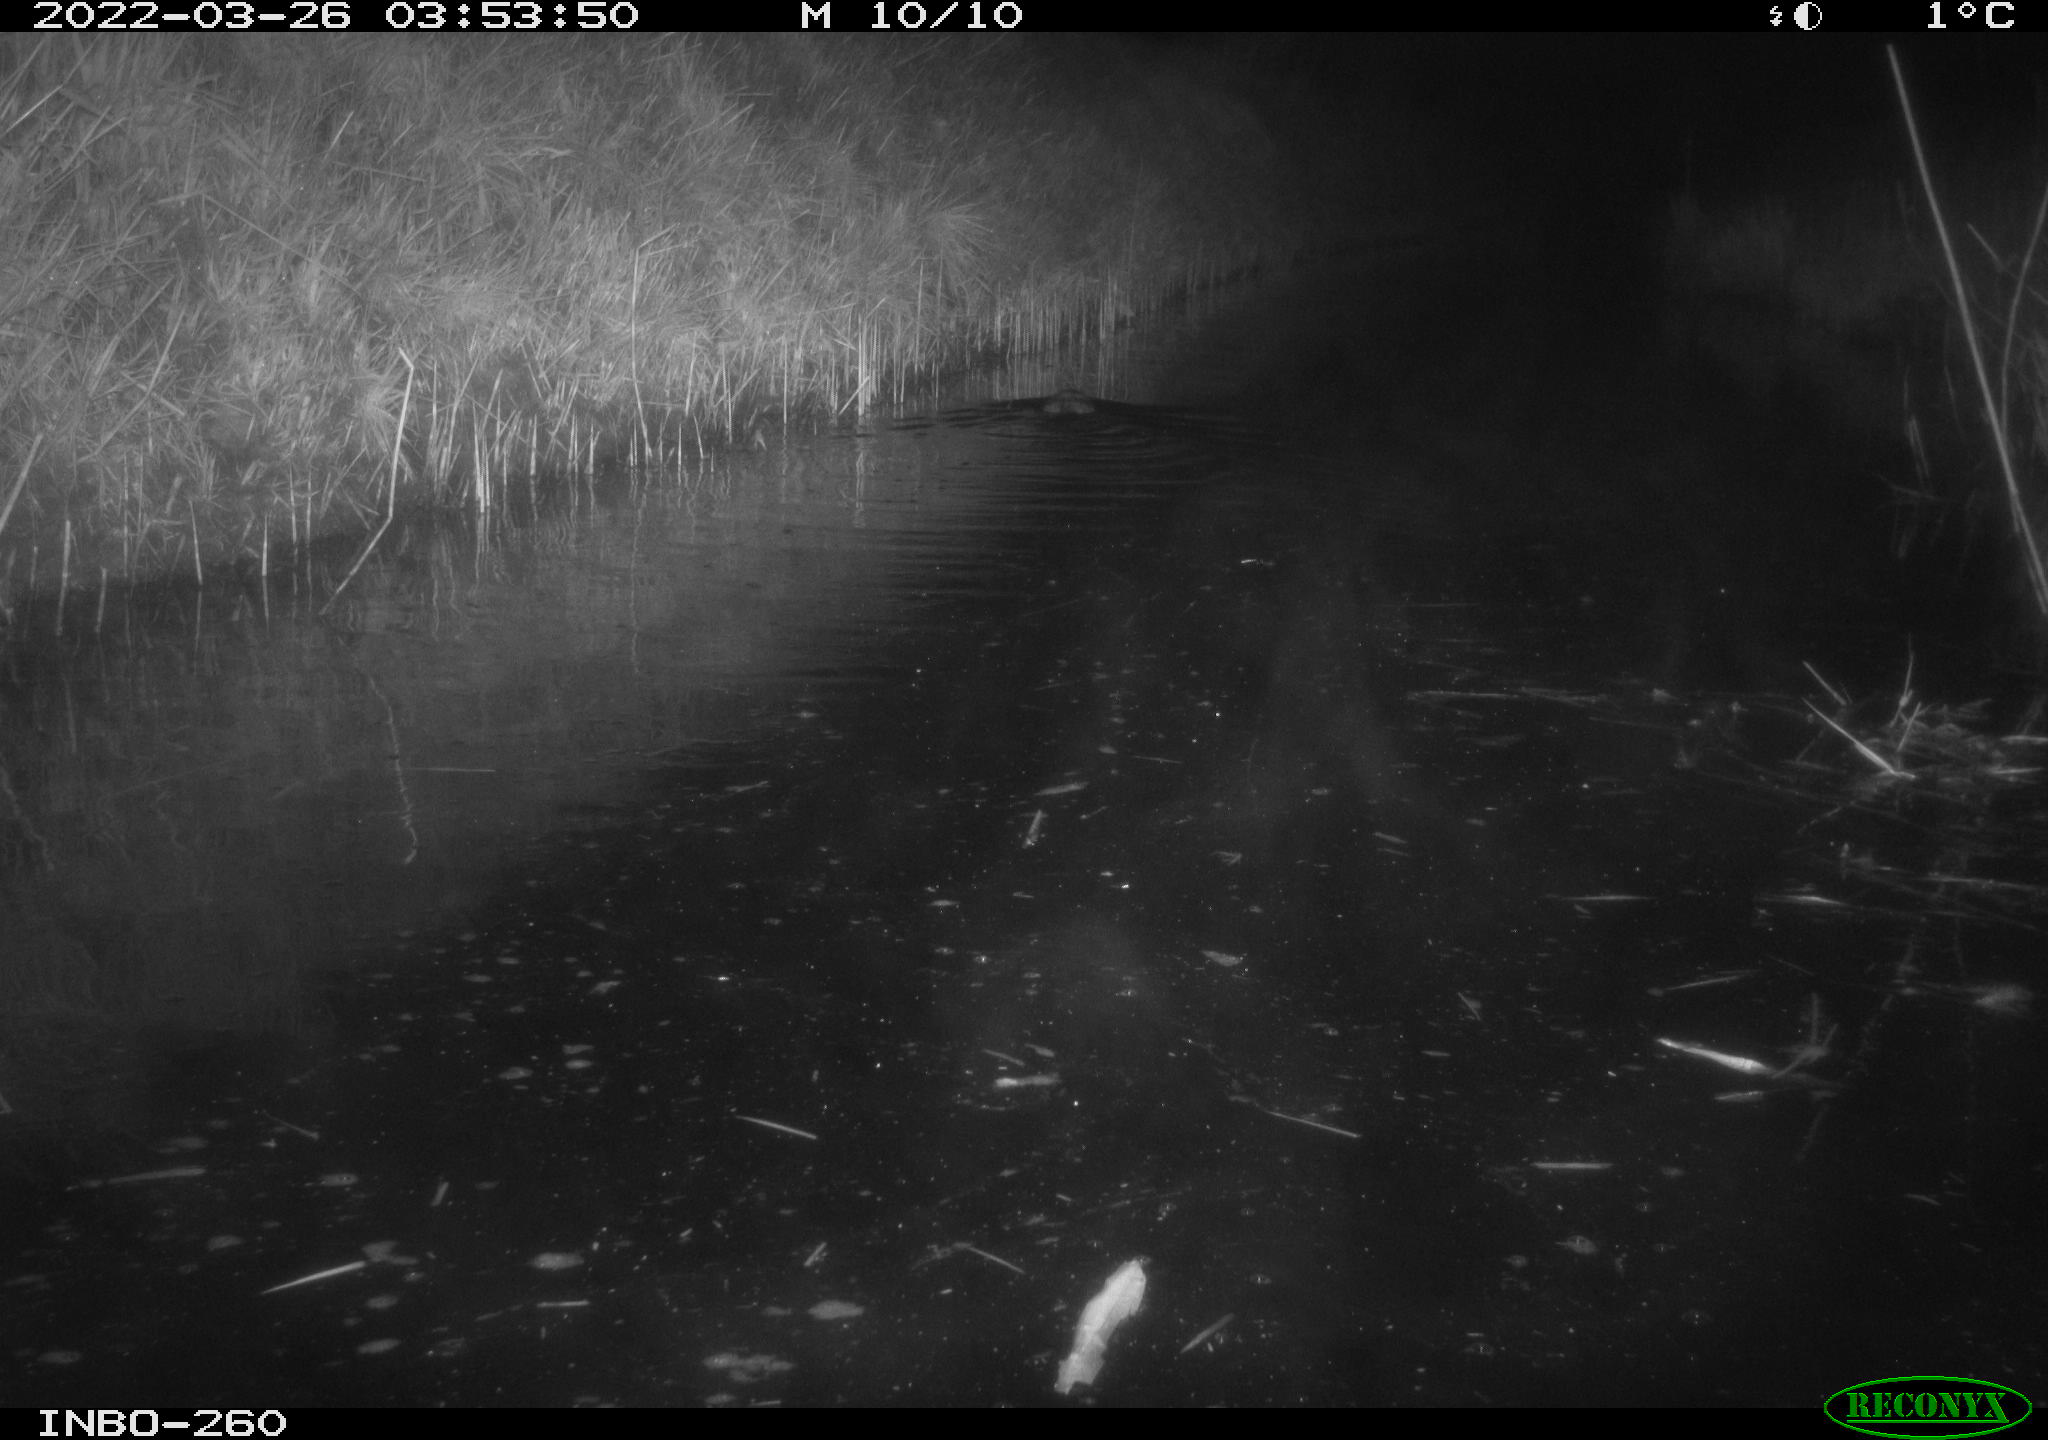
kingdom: Animalia
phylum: Chordata
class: Mammalia
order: Rodentia
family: Cricetidae
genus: Ondatra
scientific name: Ondatra zibethicus
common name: Muskrat
